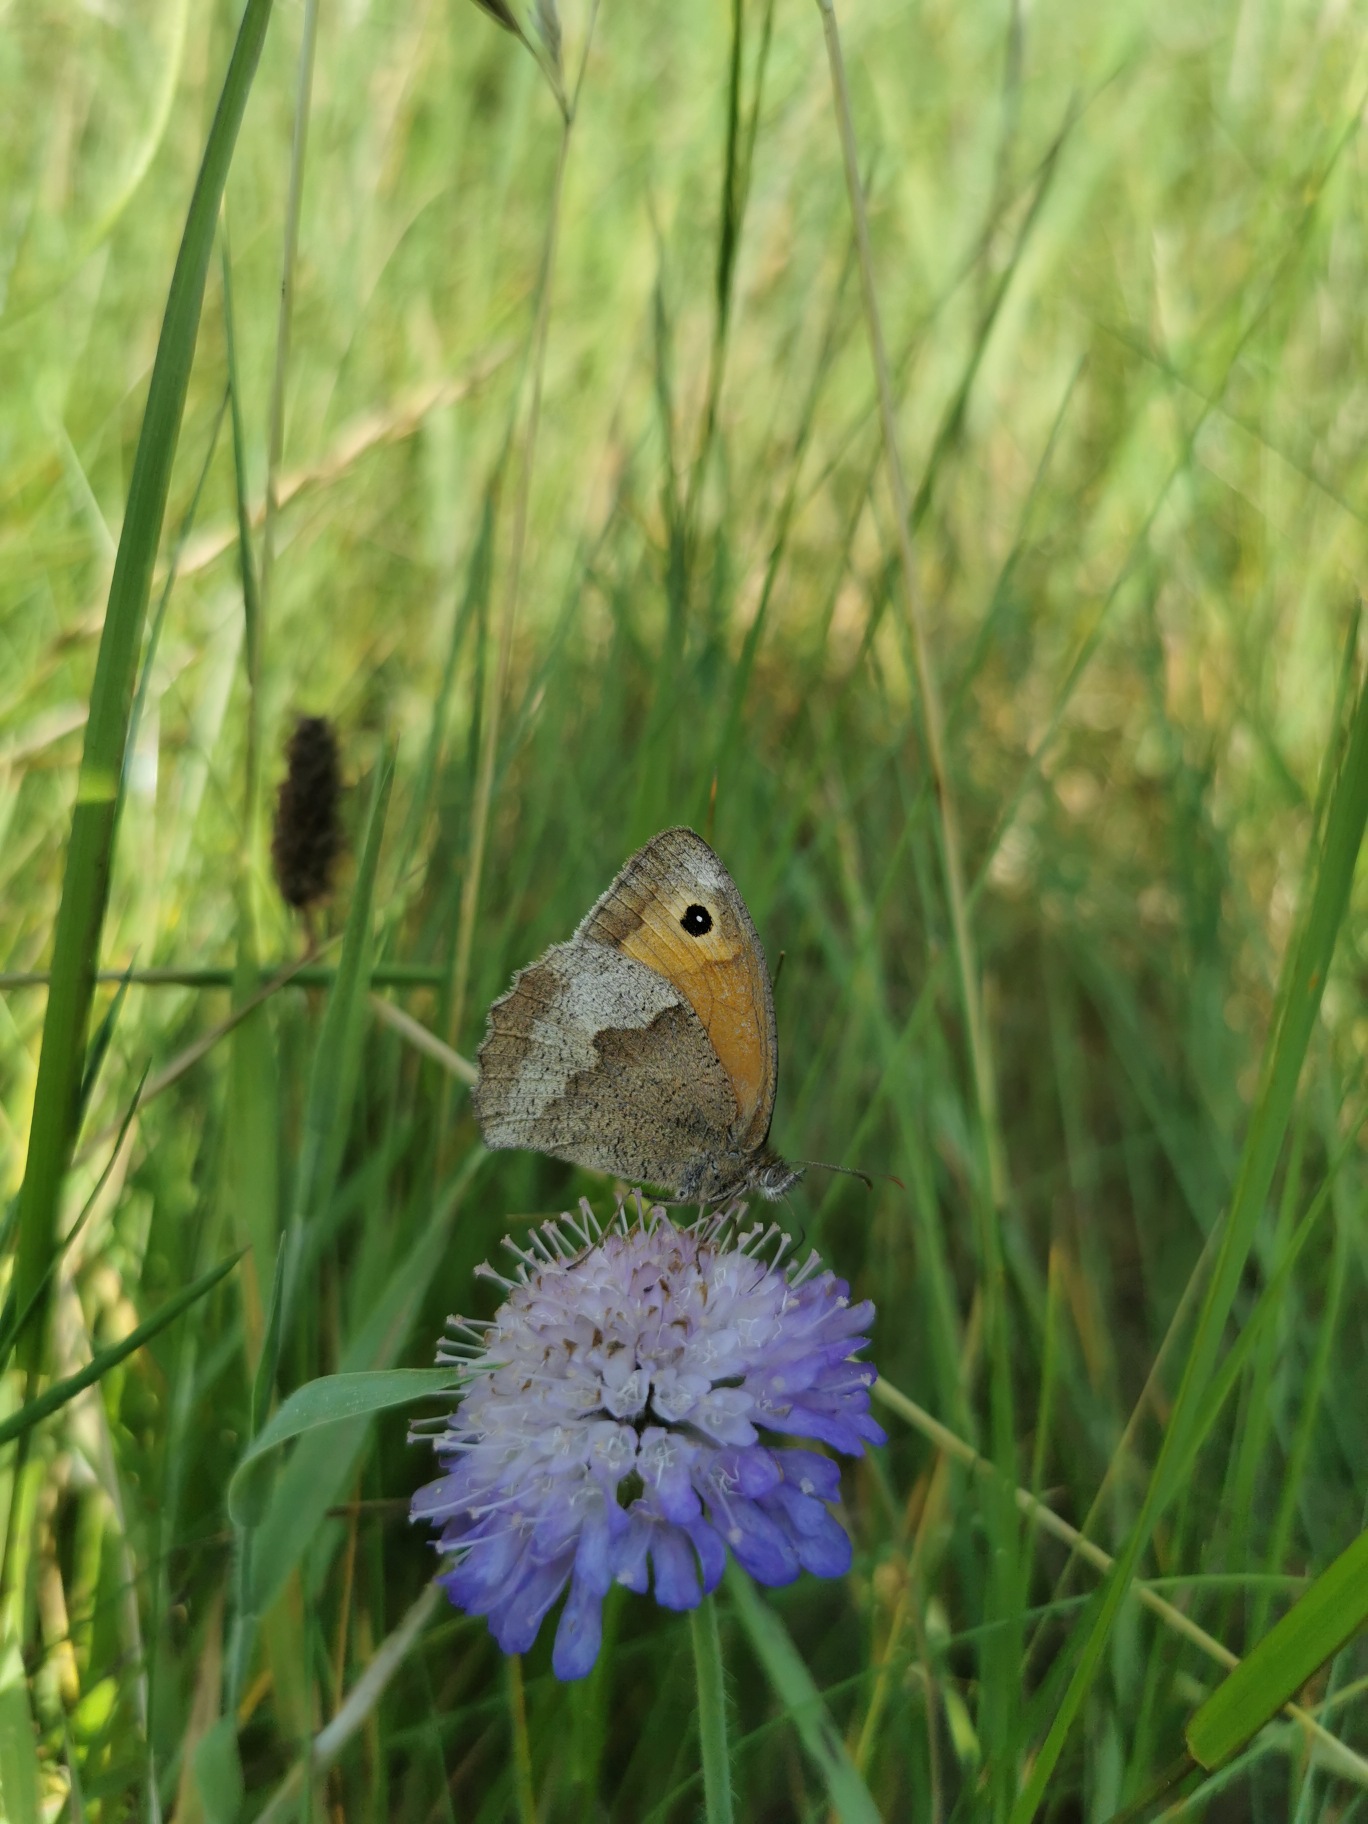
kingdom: Animalia
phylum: Arthropoda
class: Insecta
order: Lepidoptera
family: Nymphalidae
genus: Maniola
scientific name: Maniola jurtina
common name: Græsrandøje
